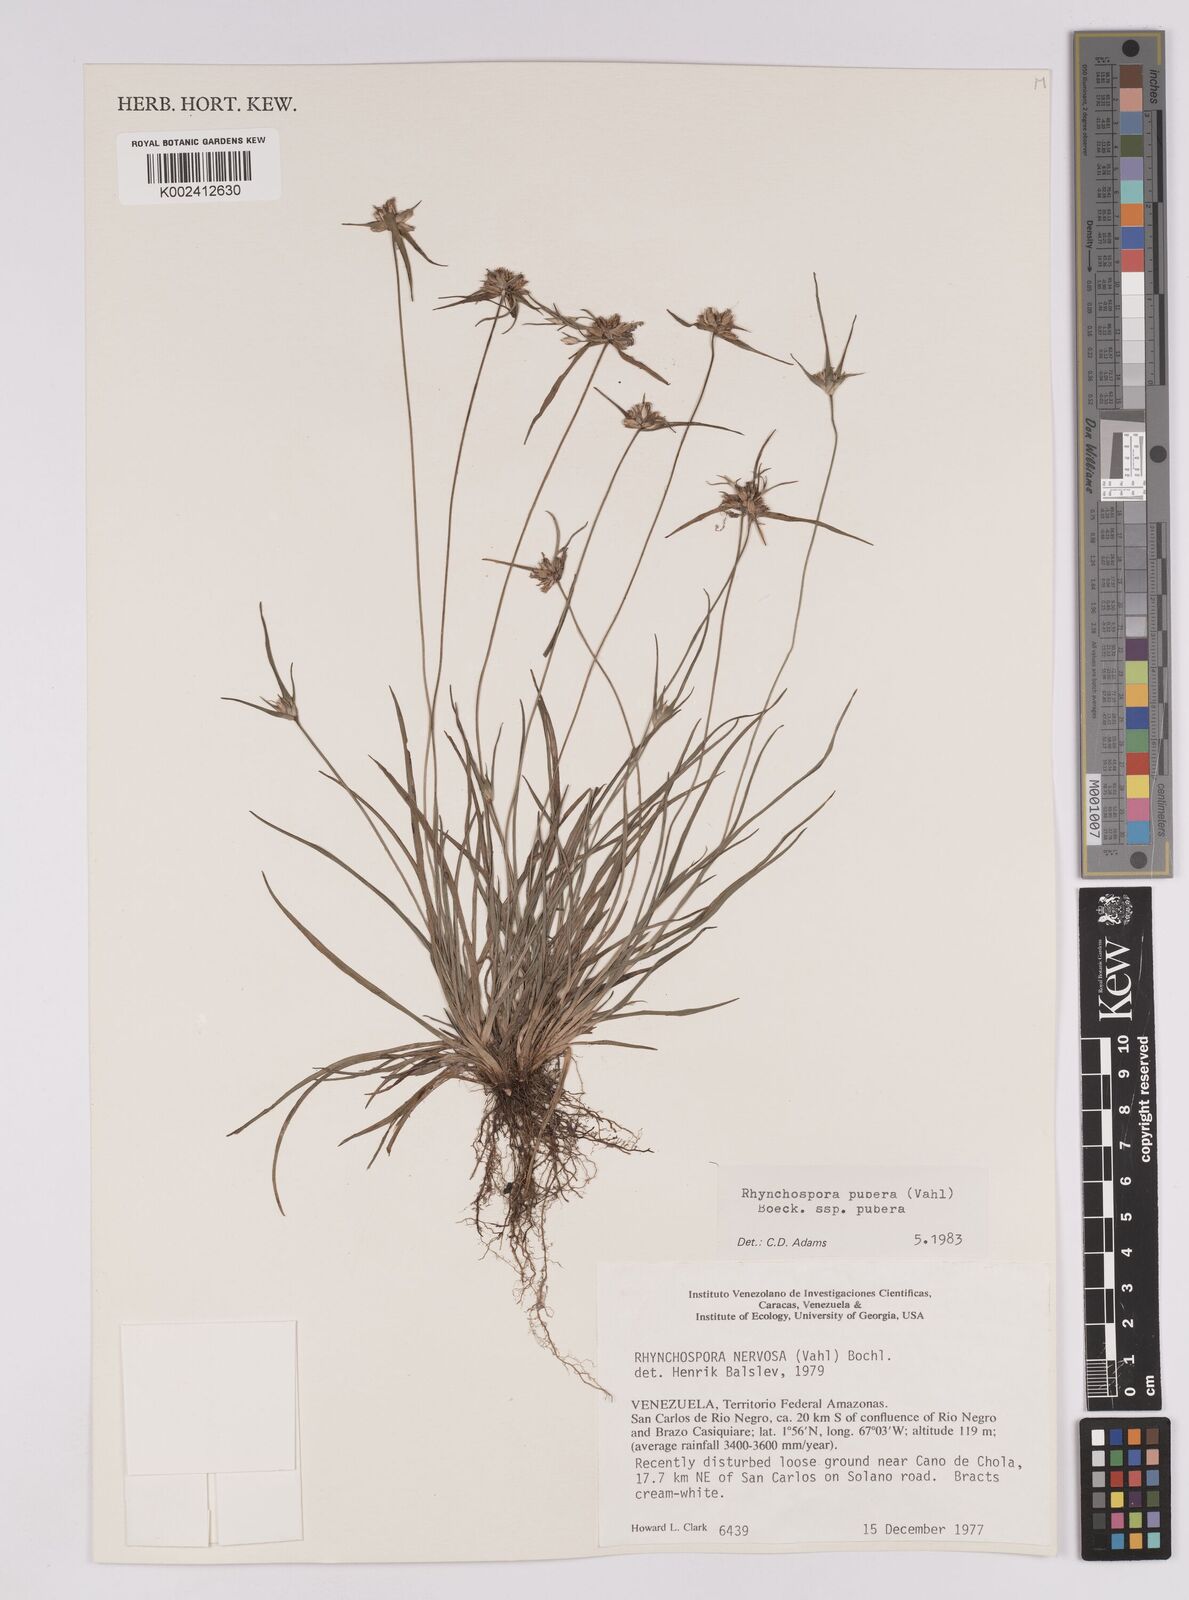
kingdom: Plantae
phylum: Tracheophyta
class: Liliopsida
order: Poales
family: Cyperaceae
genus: Rhynchospora
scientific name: Rhynchospora pubera
